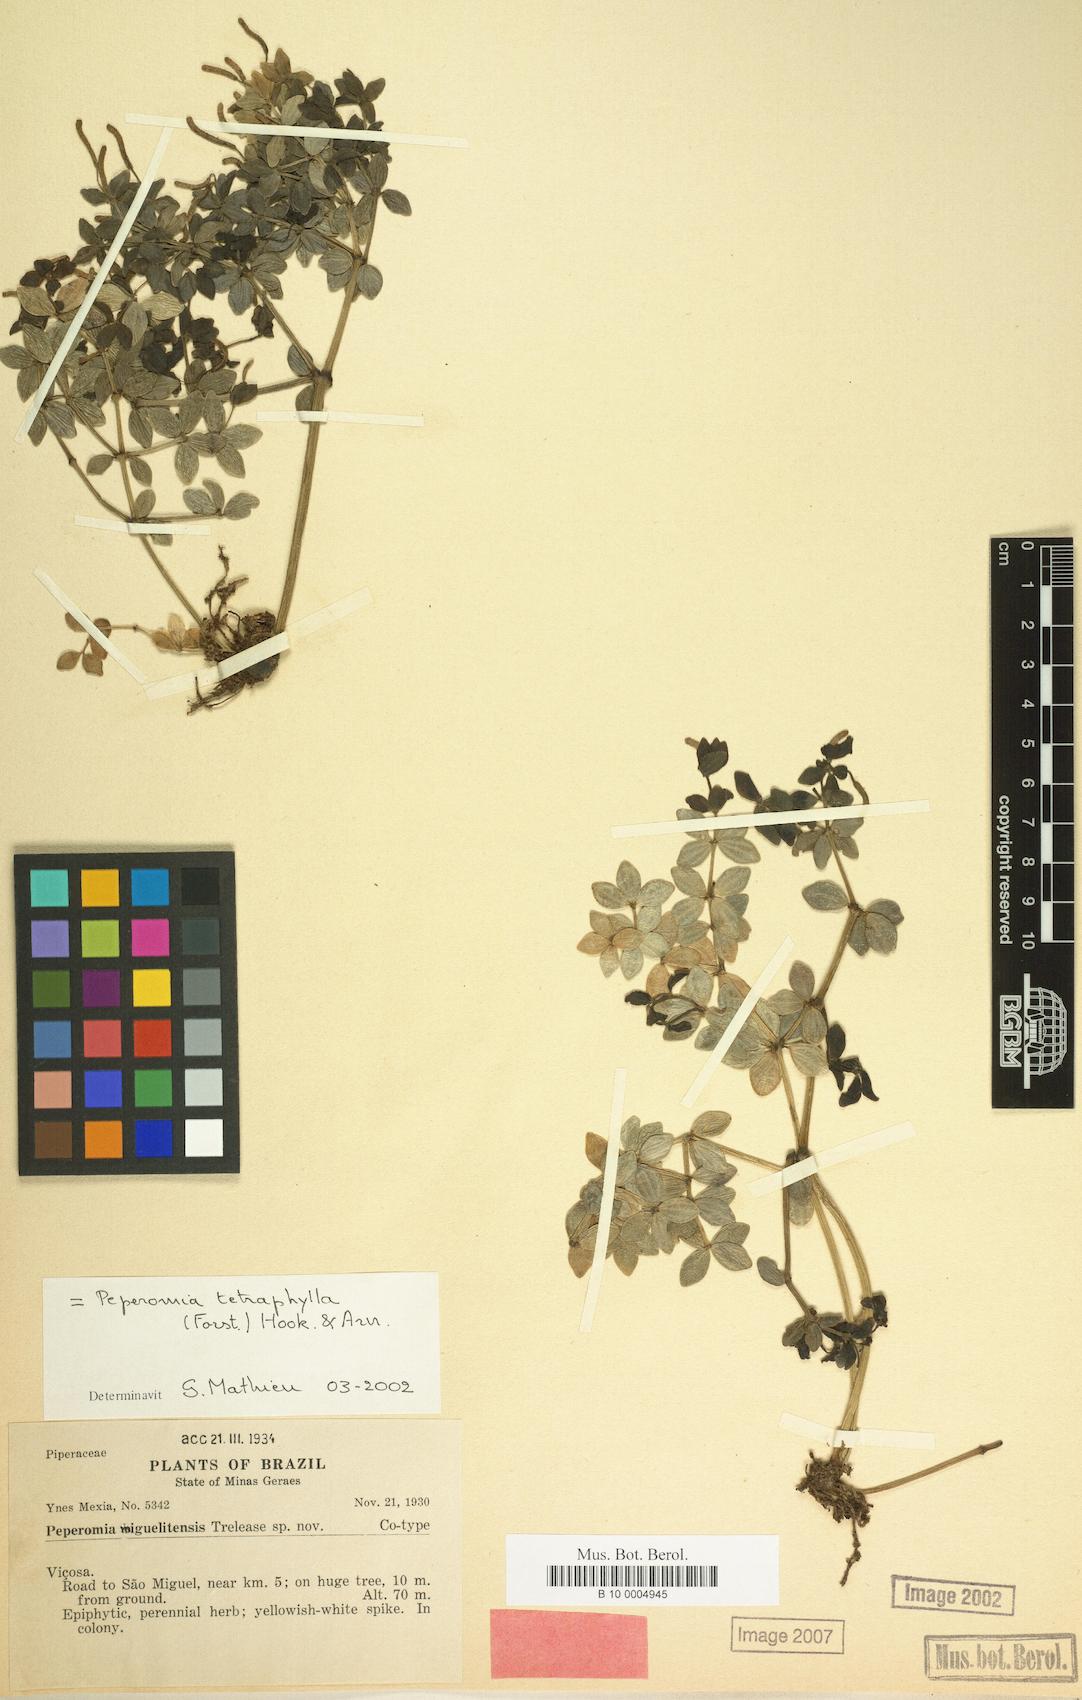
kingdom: Plantae
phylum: Tracheophyta
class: Magnoliopsida
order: Piperales
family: Piperaceae
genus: Peperomia
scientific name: Peperomia
